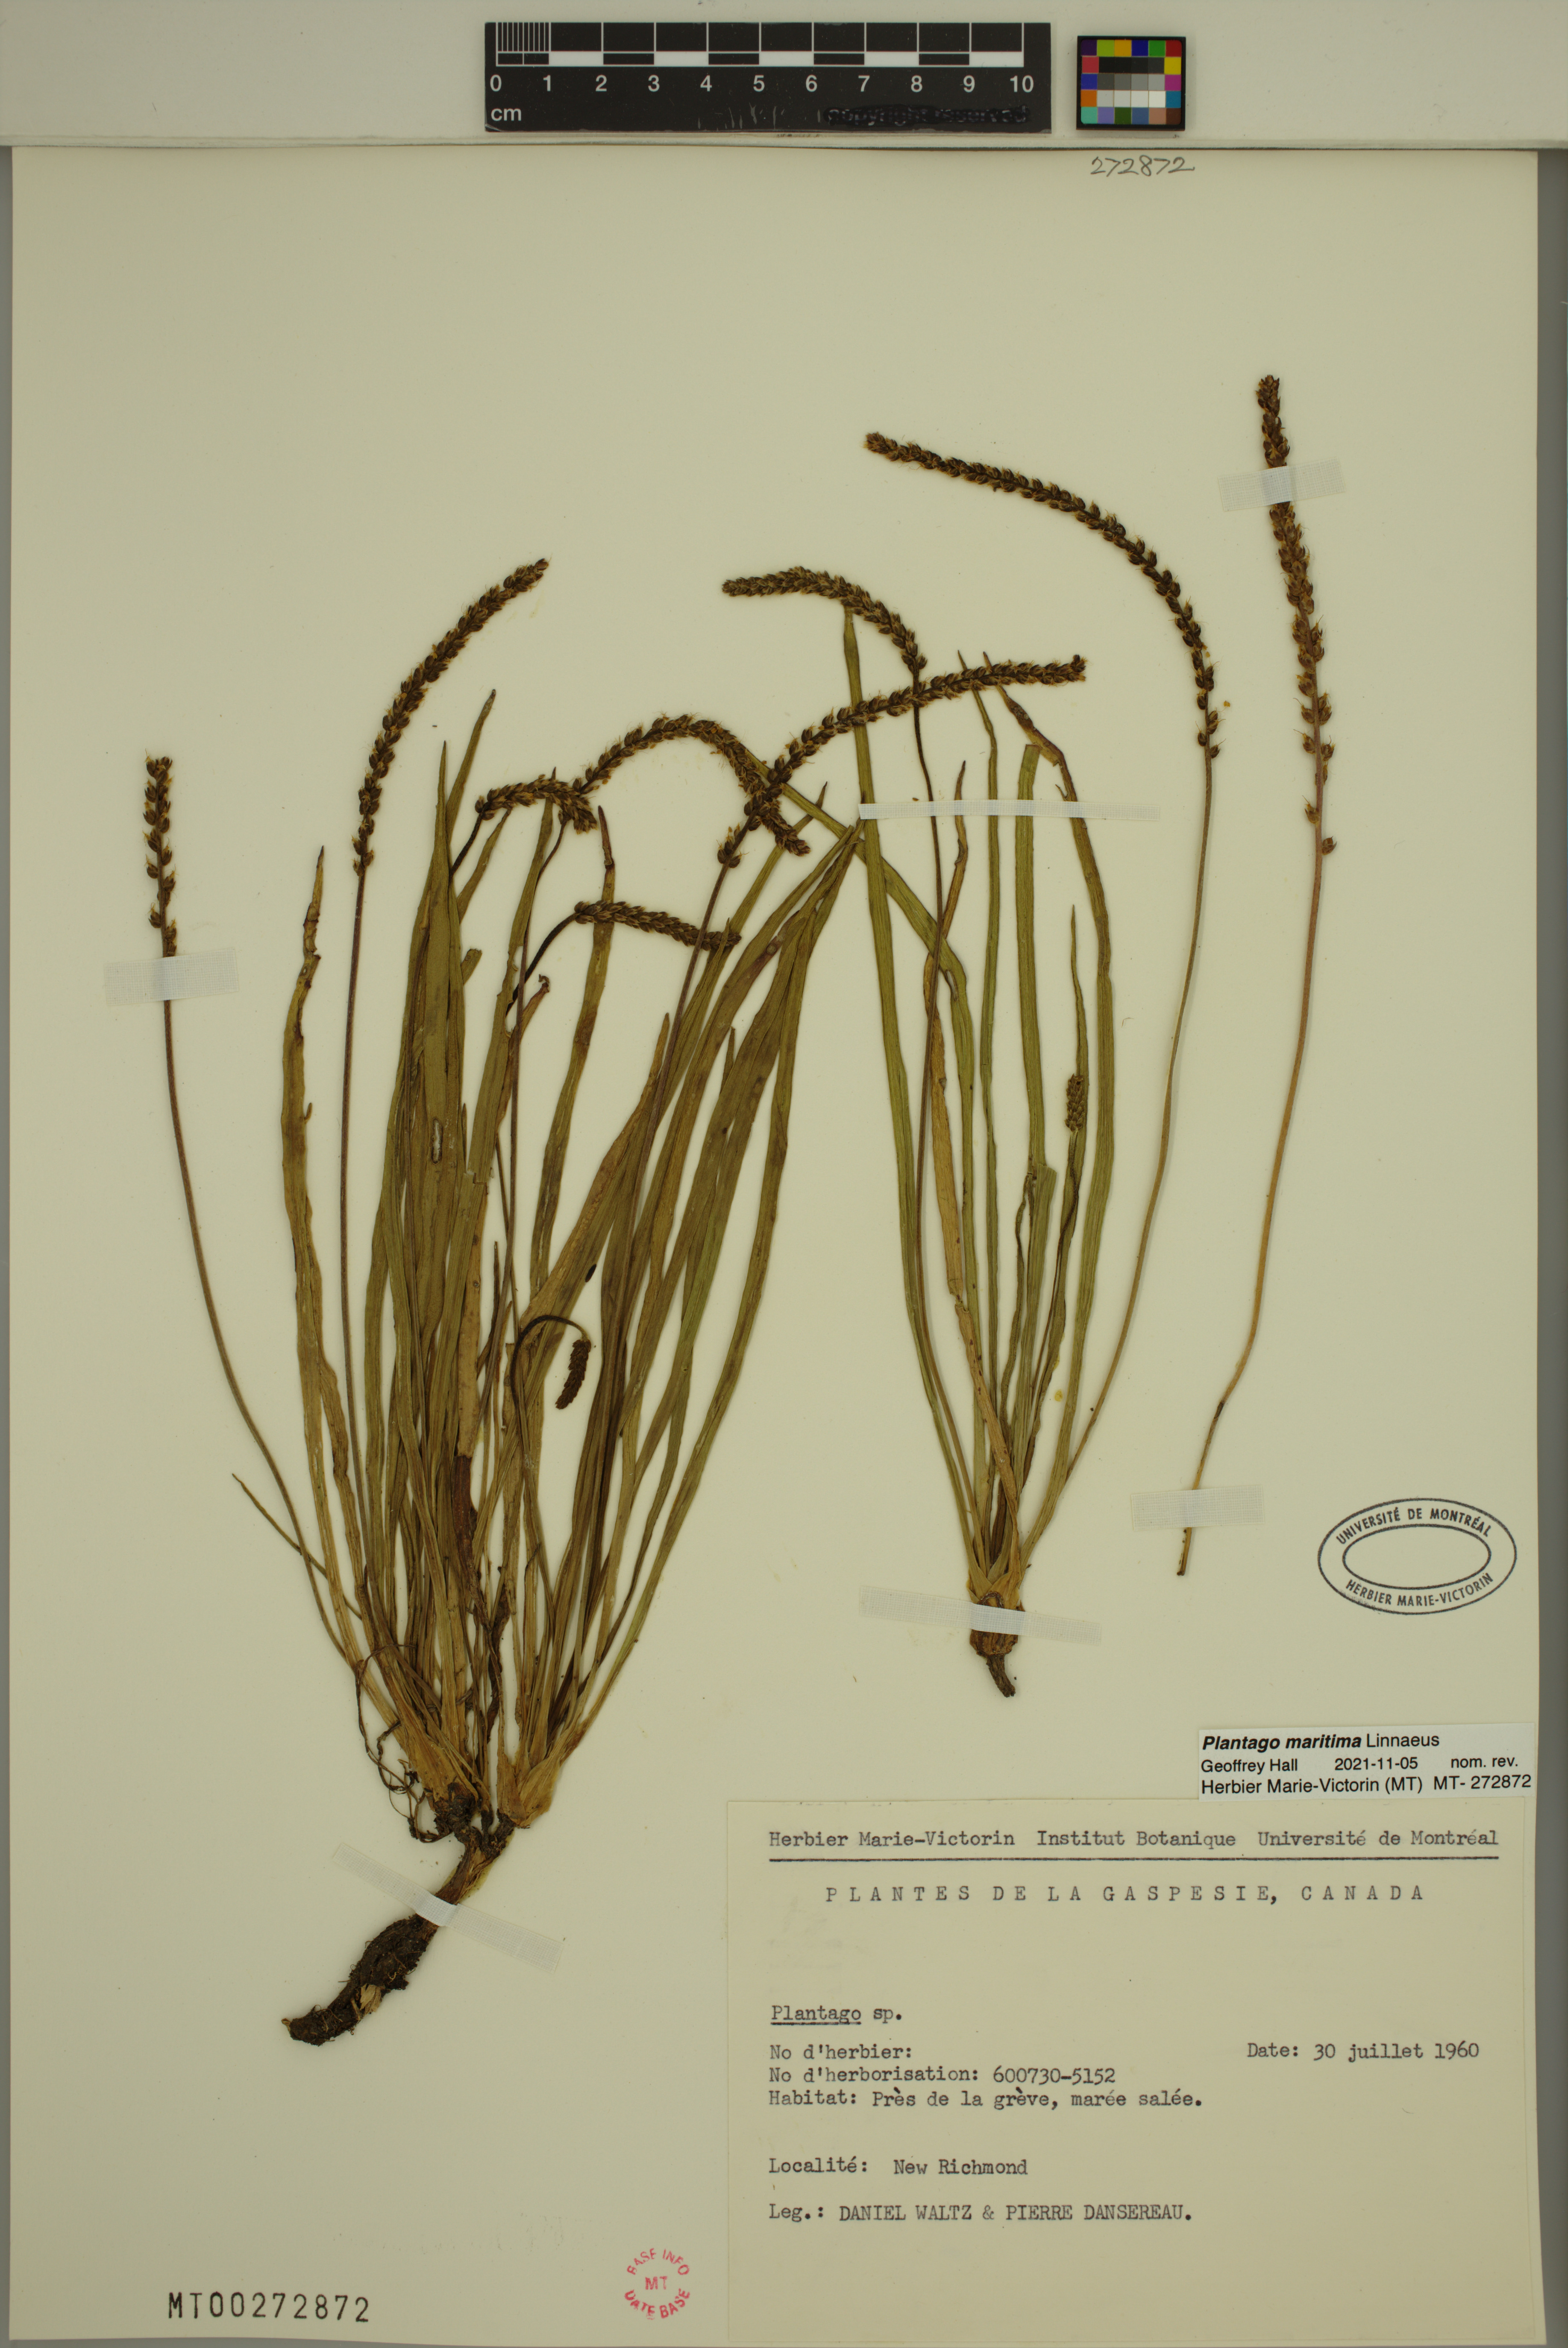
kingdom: Plantae
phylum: Tracheophyta
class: Magnoliopsida
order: Lamiales
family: Plantaginaceae
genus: Plantago
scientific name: Plantago maritima
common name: Sea plantain
